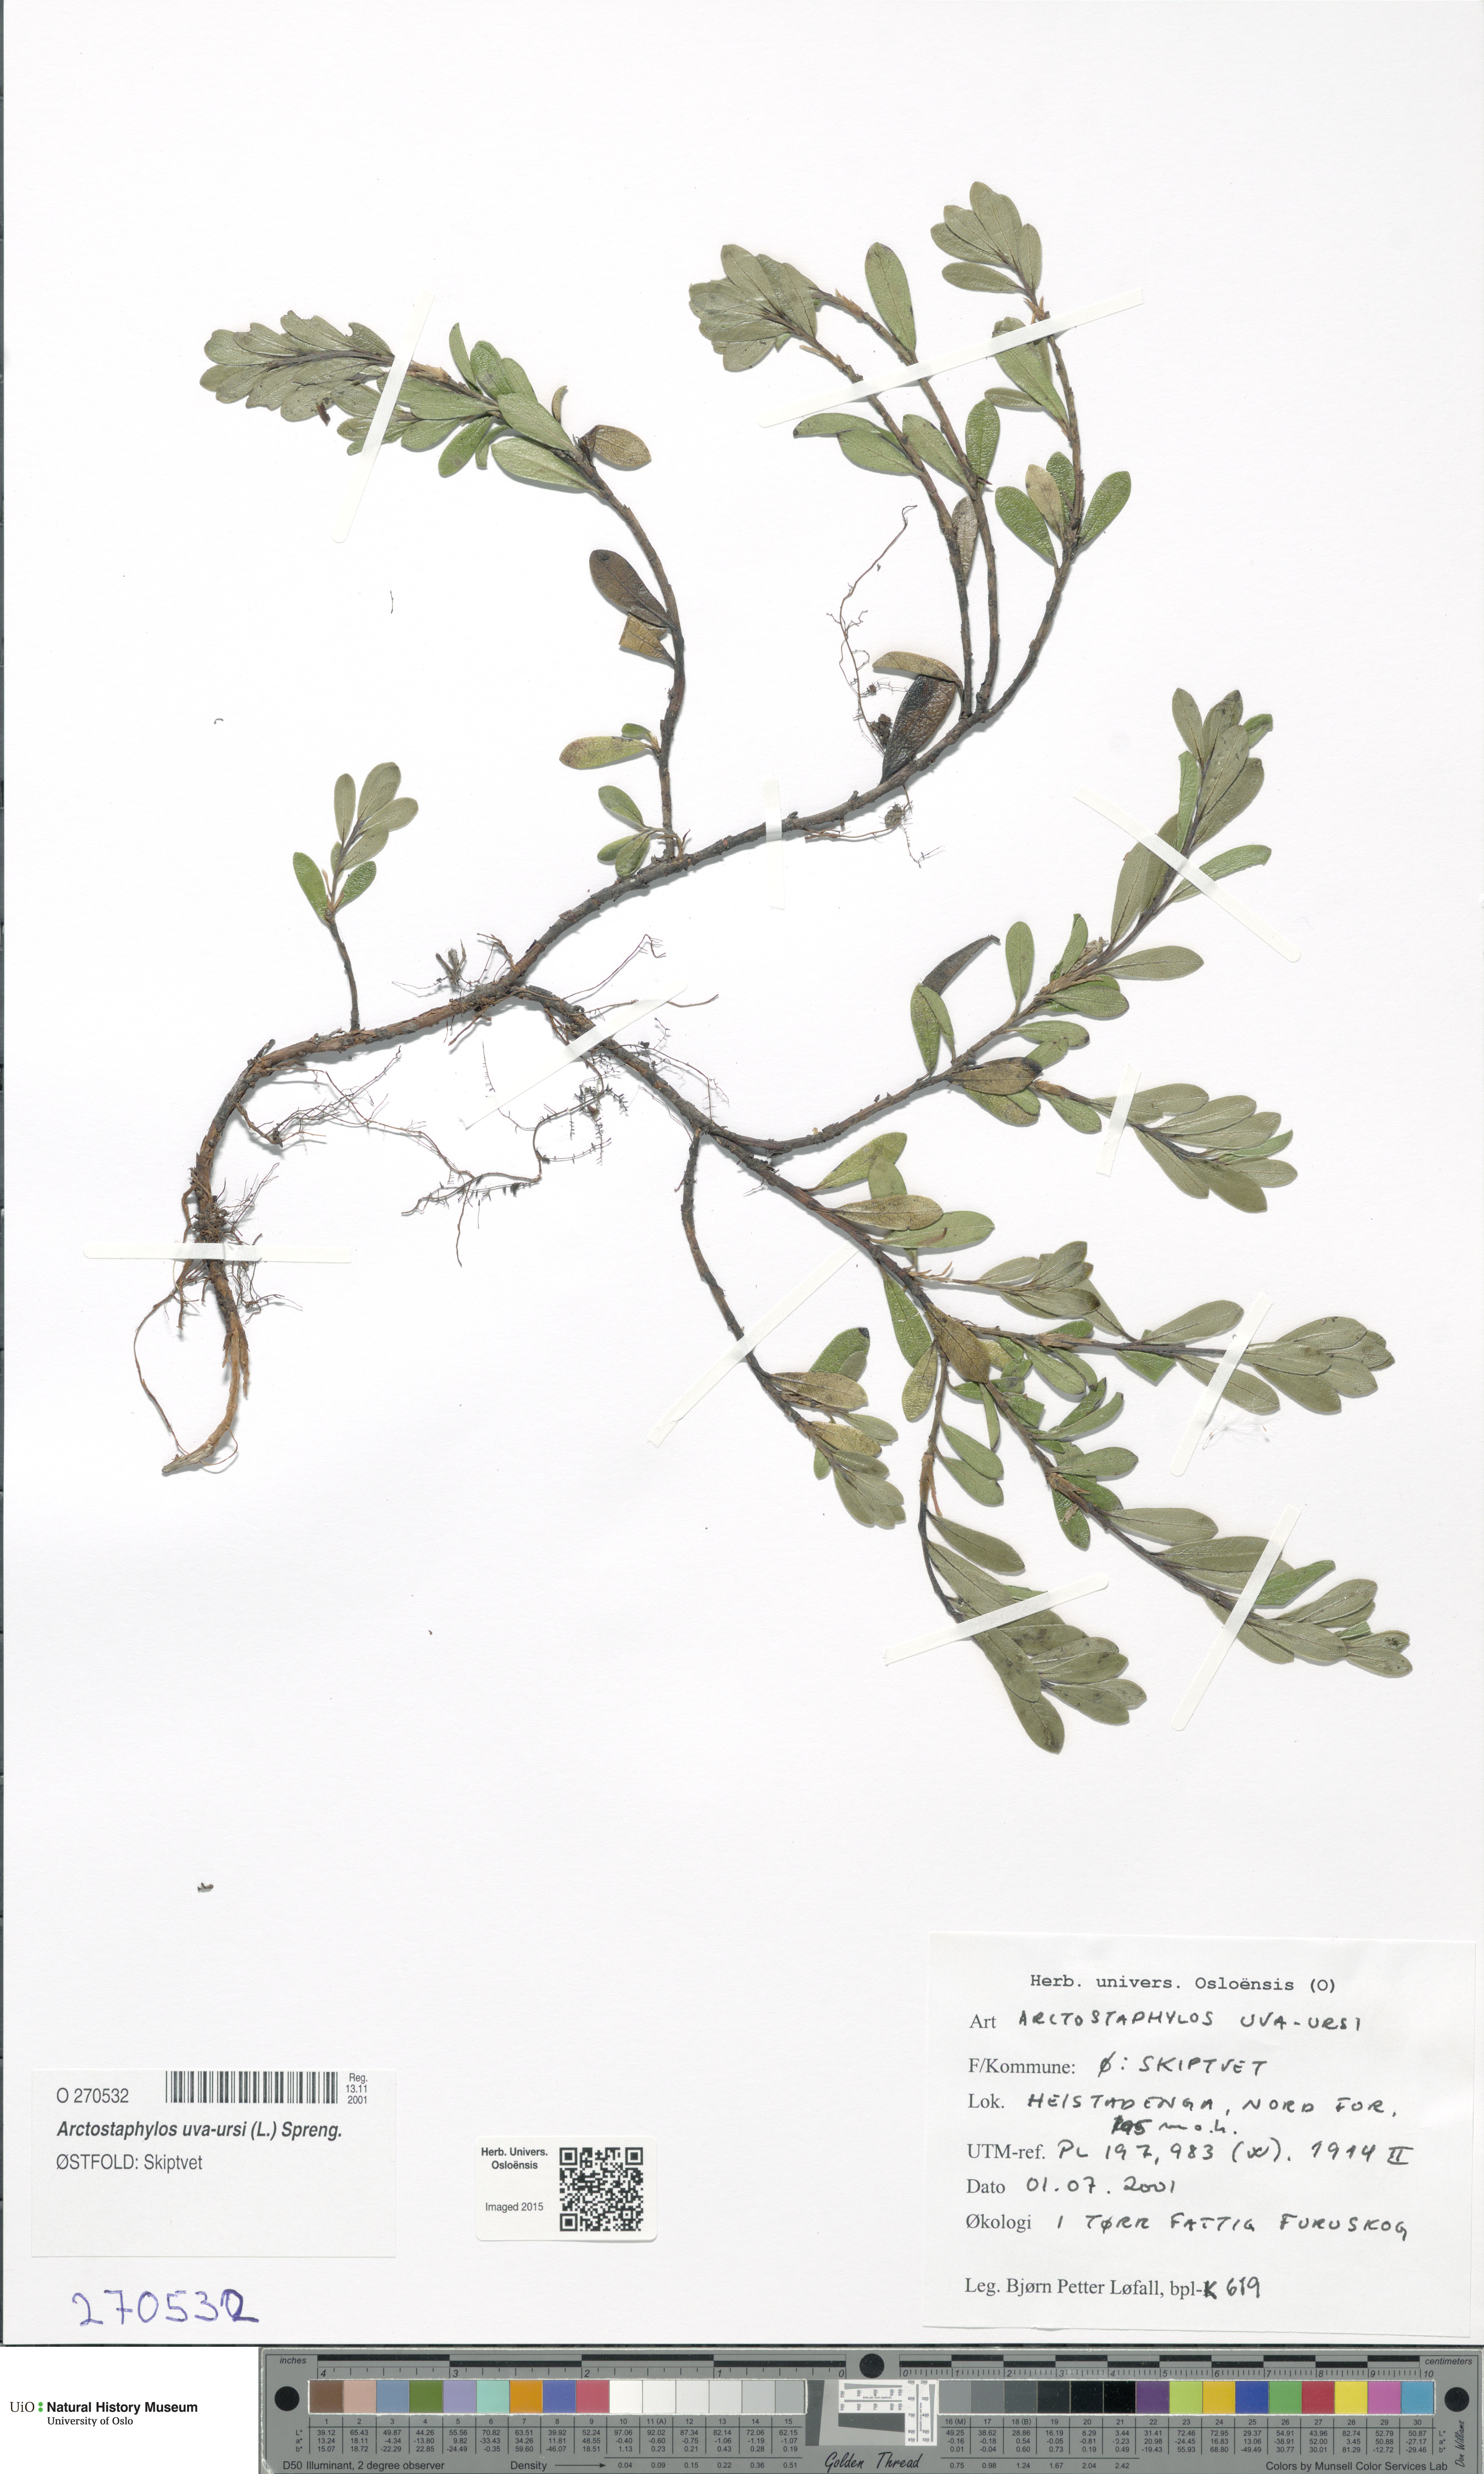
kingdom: Plantae
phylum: Tracheophyta
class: Magnoliopsida
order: Ericales
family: Ericaceae
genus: Arctostaphylos
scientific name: Arctostaphylos uva-ursi
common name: Bearberry
